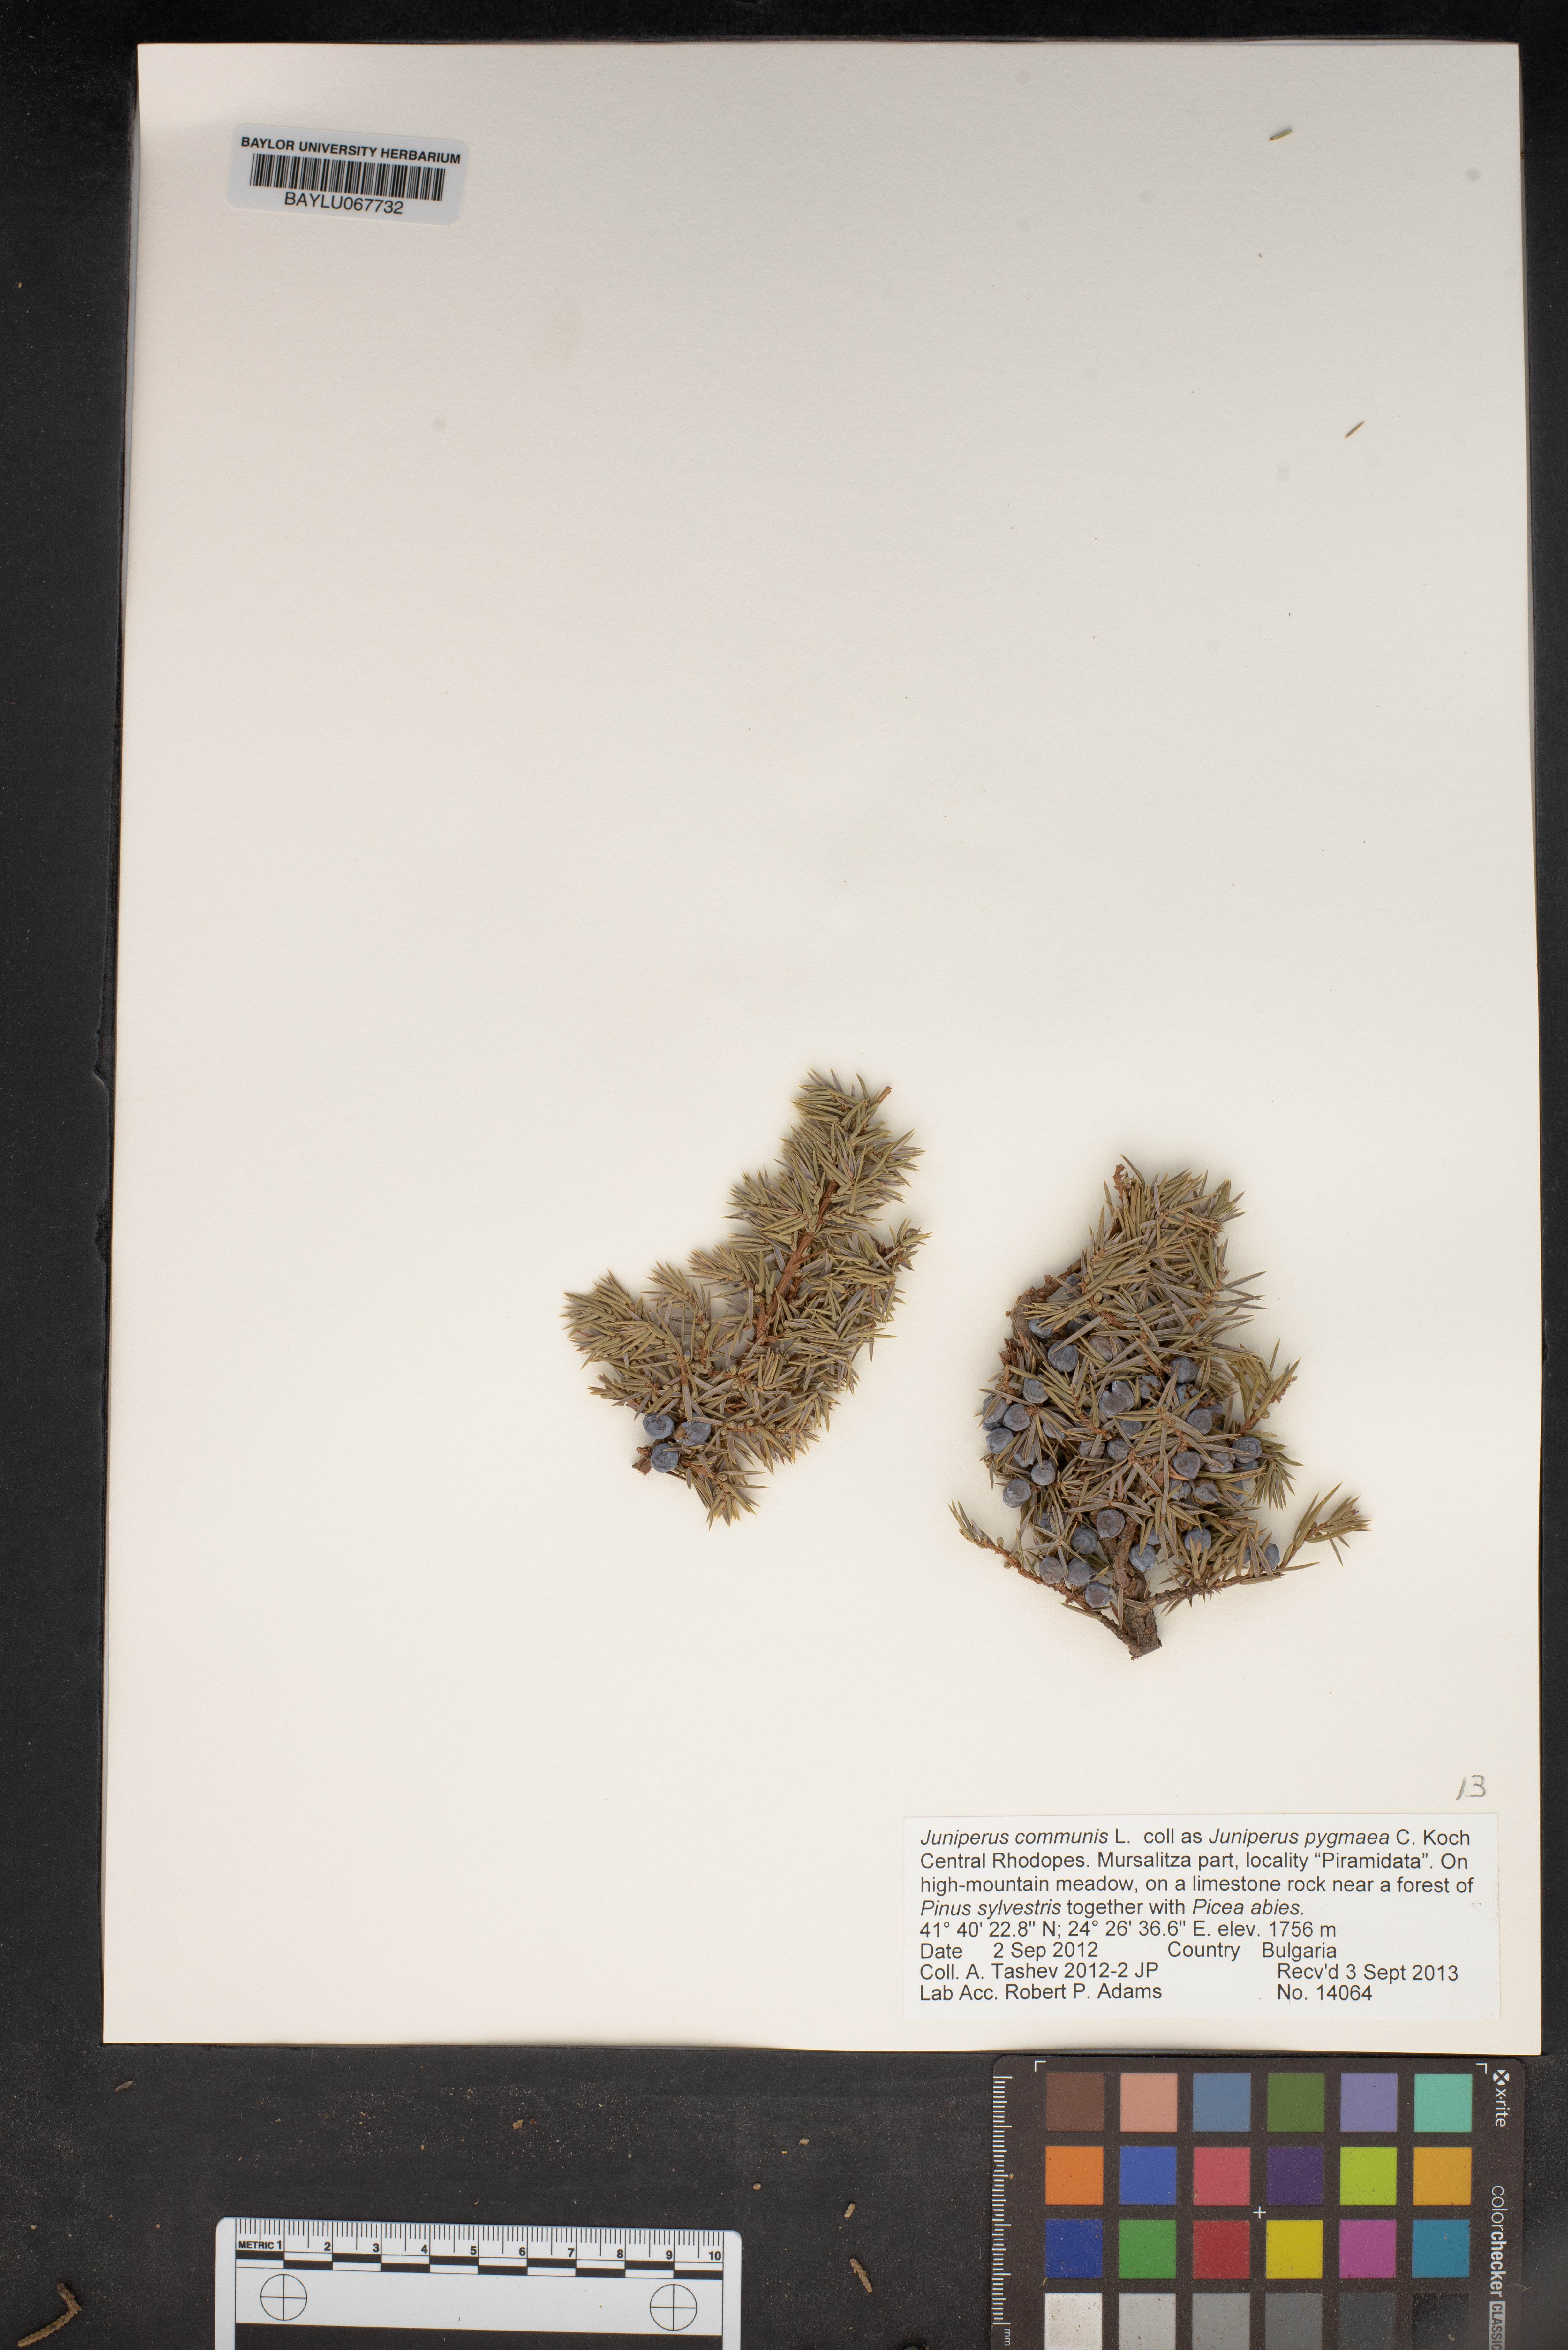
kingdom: Plantae
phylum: Tracheophyta
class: Pinopsida
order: Pinales
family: Cupressaceae
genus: Juniperus
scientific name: Juniperus communis
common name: Common juniper
